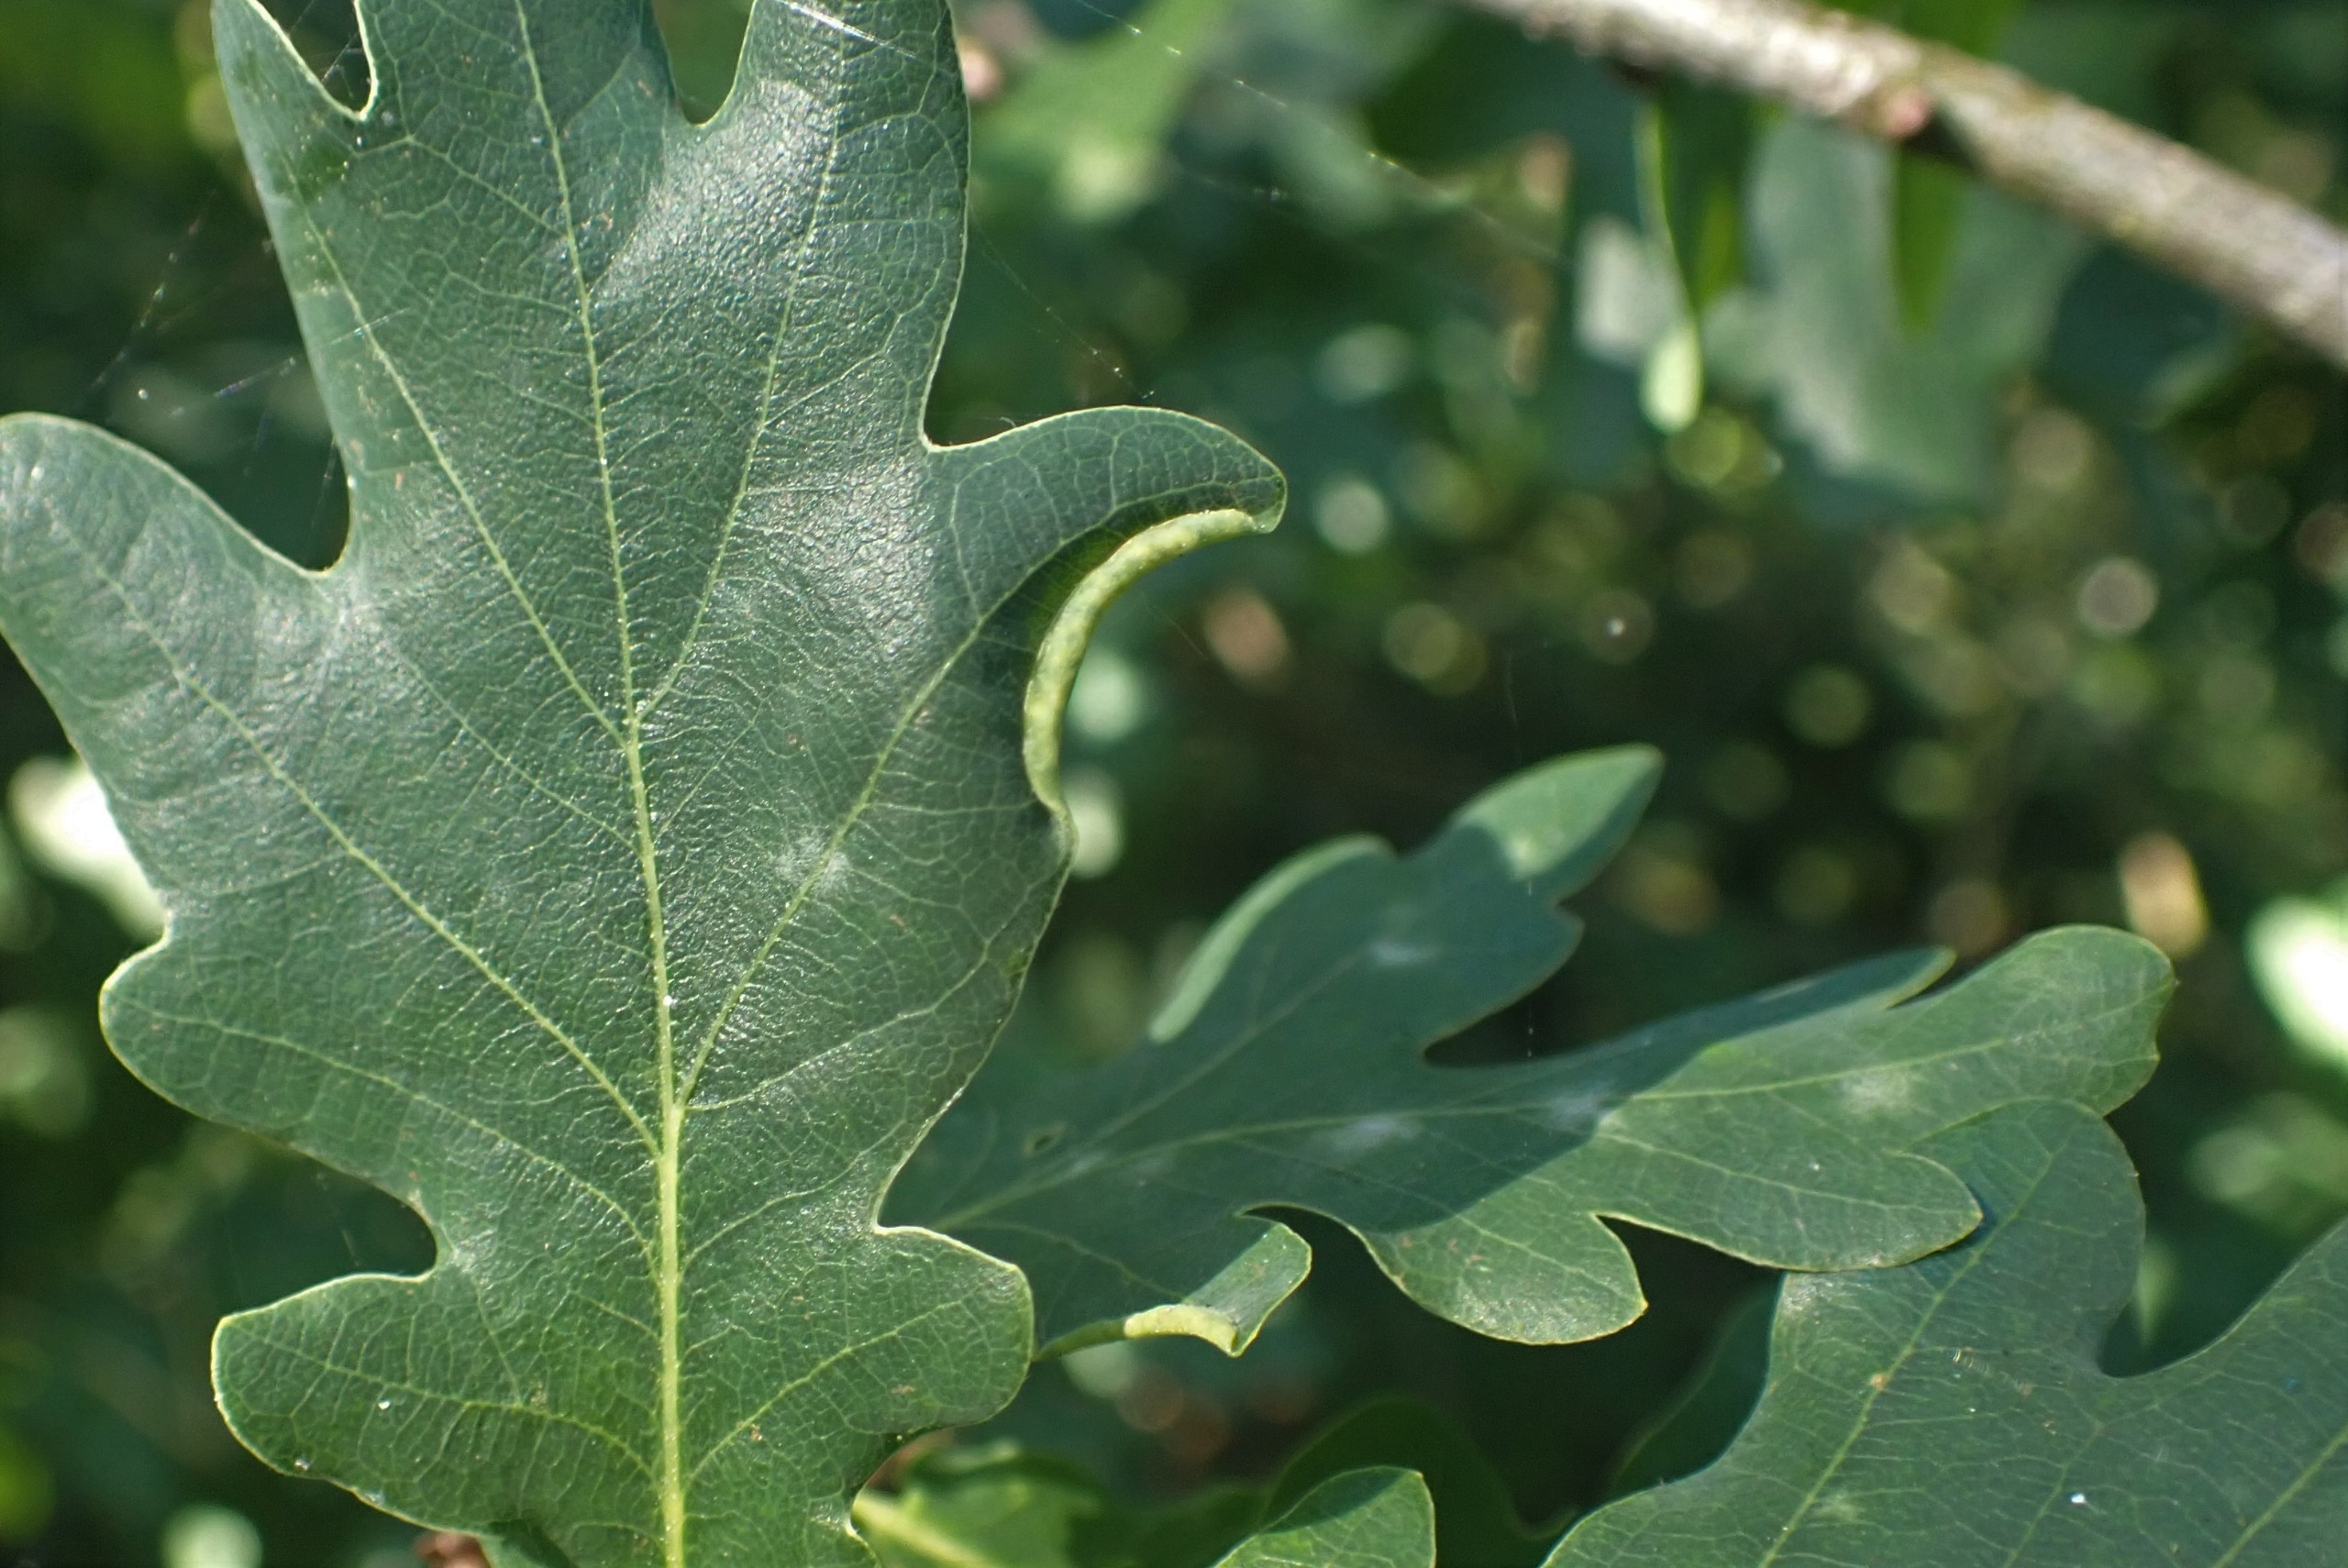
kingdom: Animalia
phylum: Arthropoda
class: Insecta
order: Diptera
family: Cecidomyiidae
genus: Macrodiplosis
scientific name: Macrodiplosis volvens
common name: Egerullegalmyg
